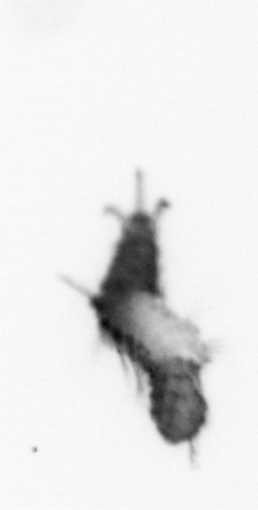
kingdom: Animalia
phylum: Annelida
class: Polychaeta
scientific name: Polychaeta
